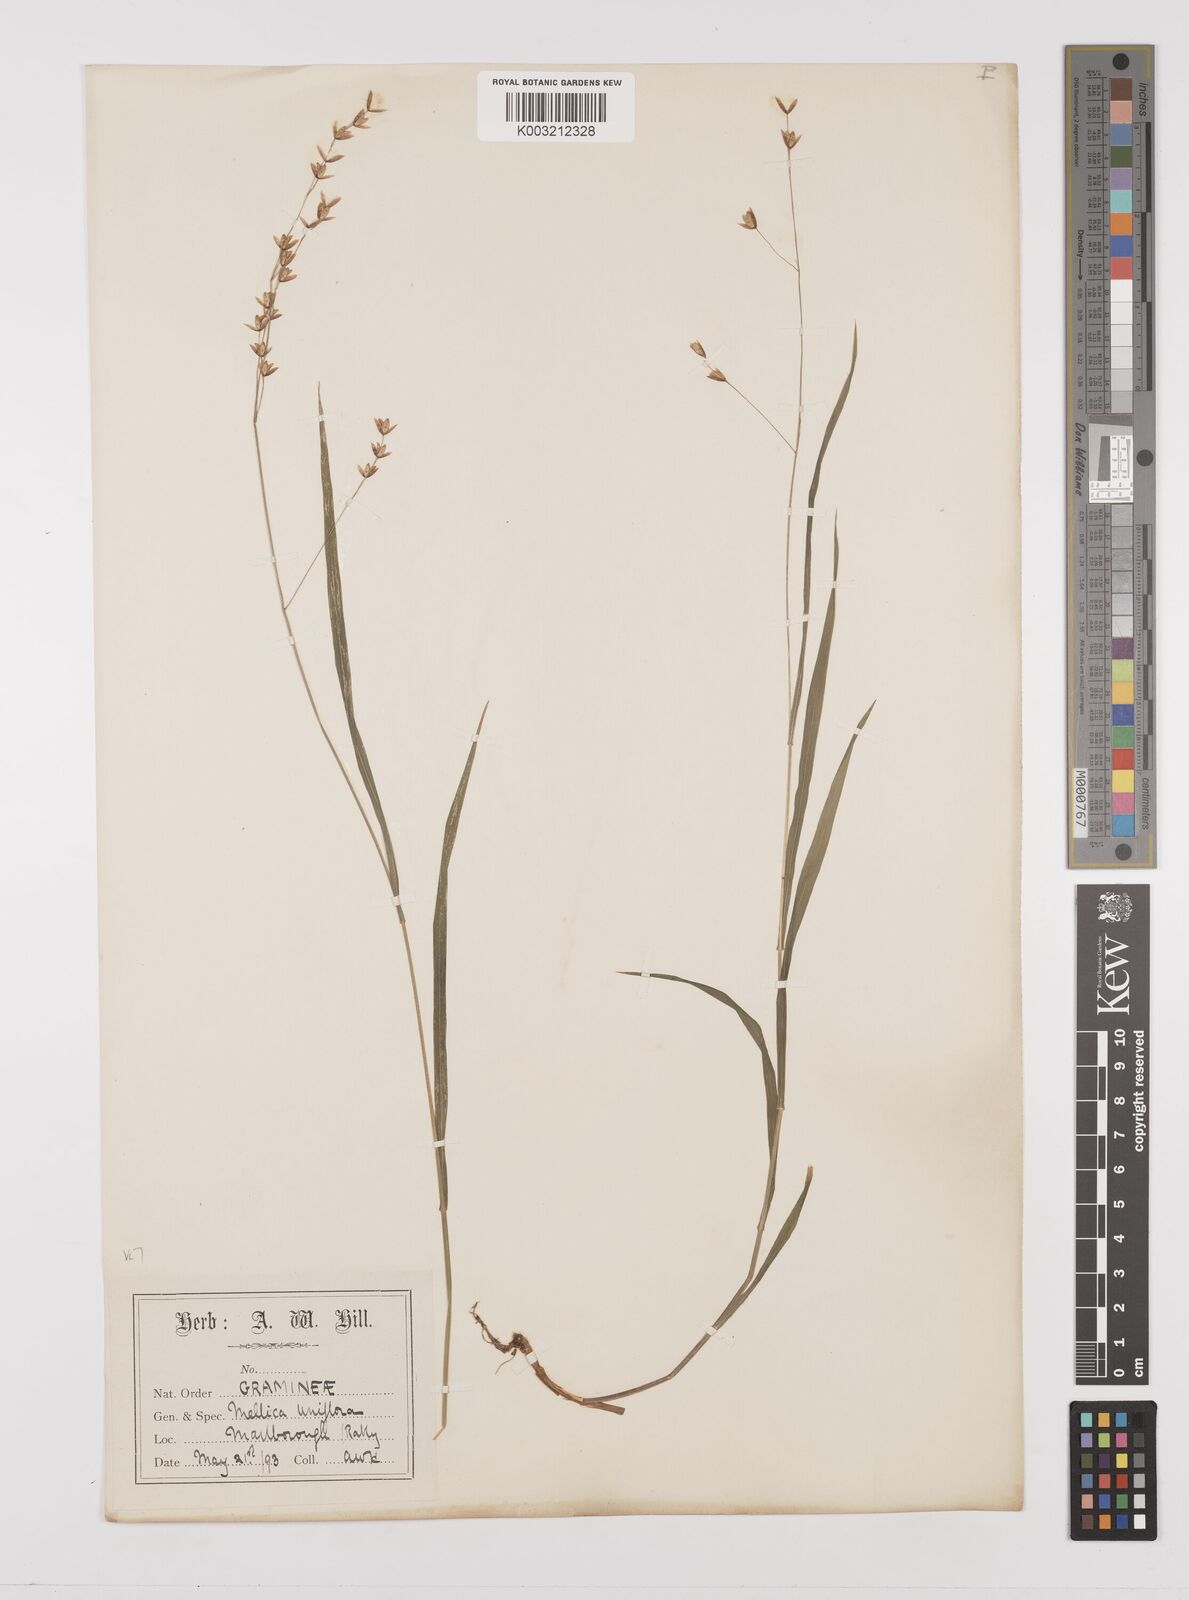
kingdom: Plantae
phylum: Tracheophyta
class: Liliopsida
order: Poales
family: Poaceae
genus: Melica
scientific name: Melica uniflora
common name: Wood melick
